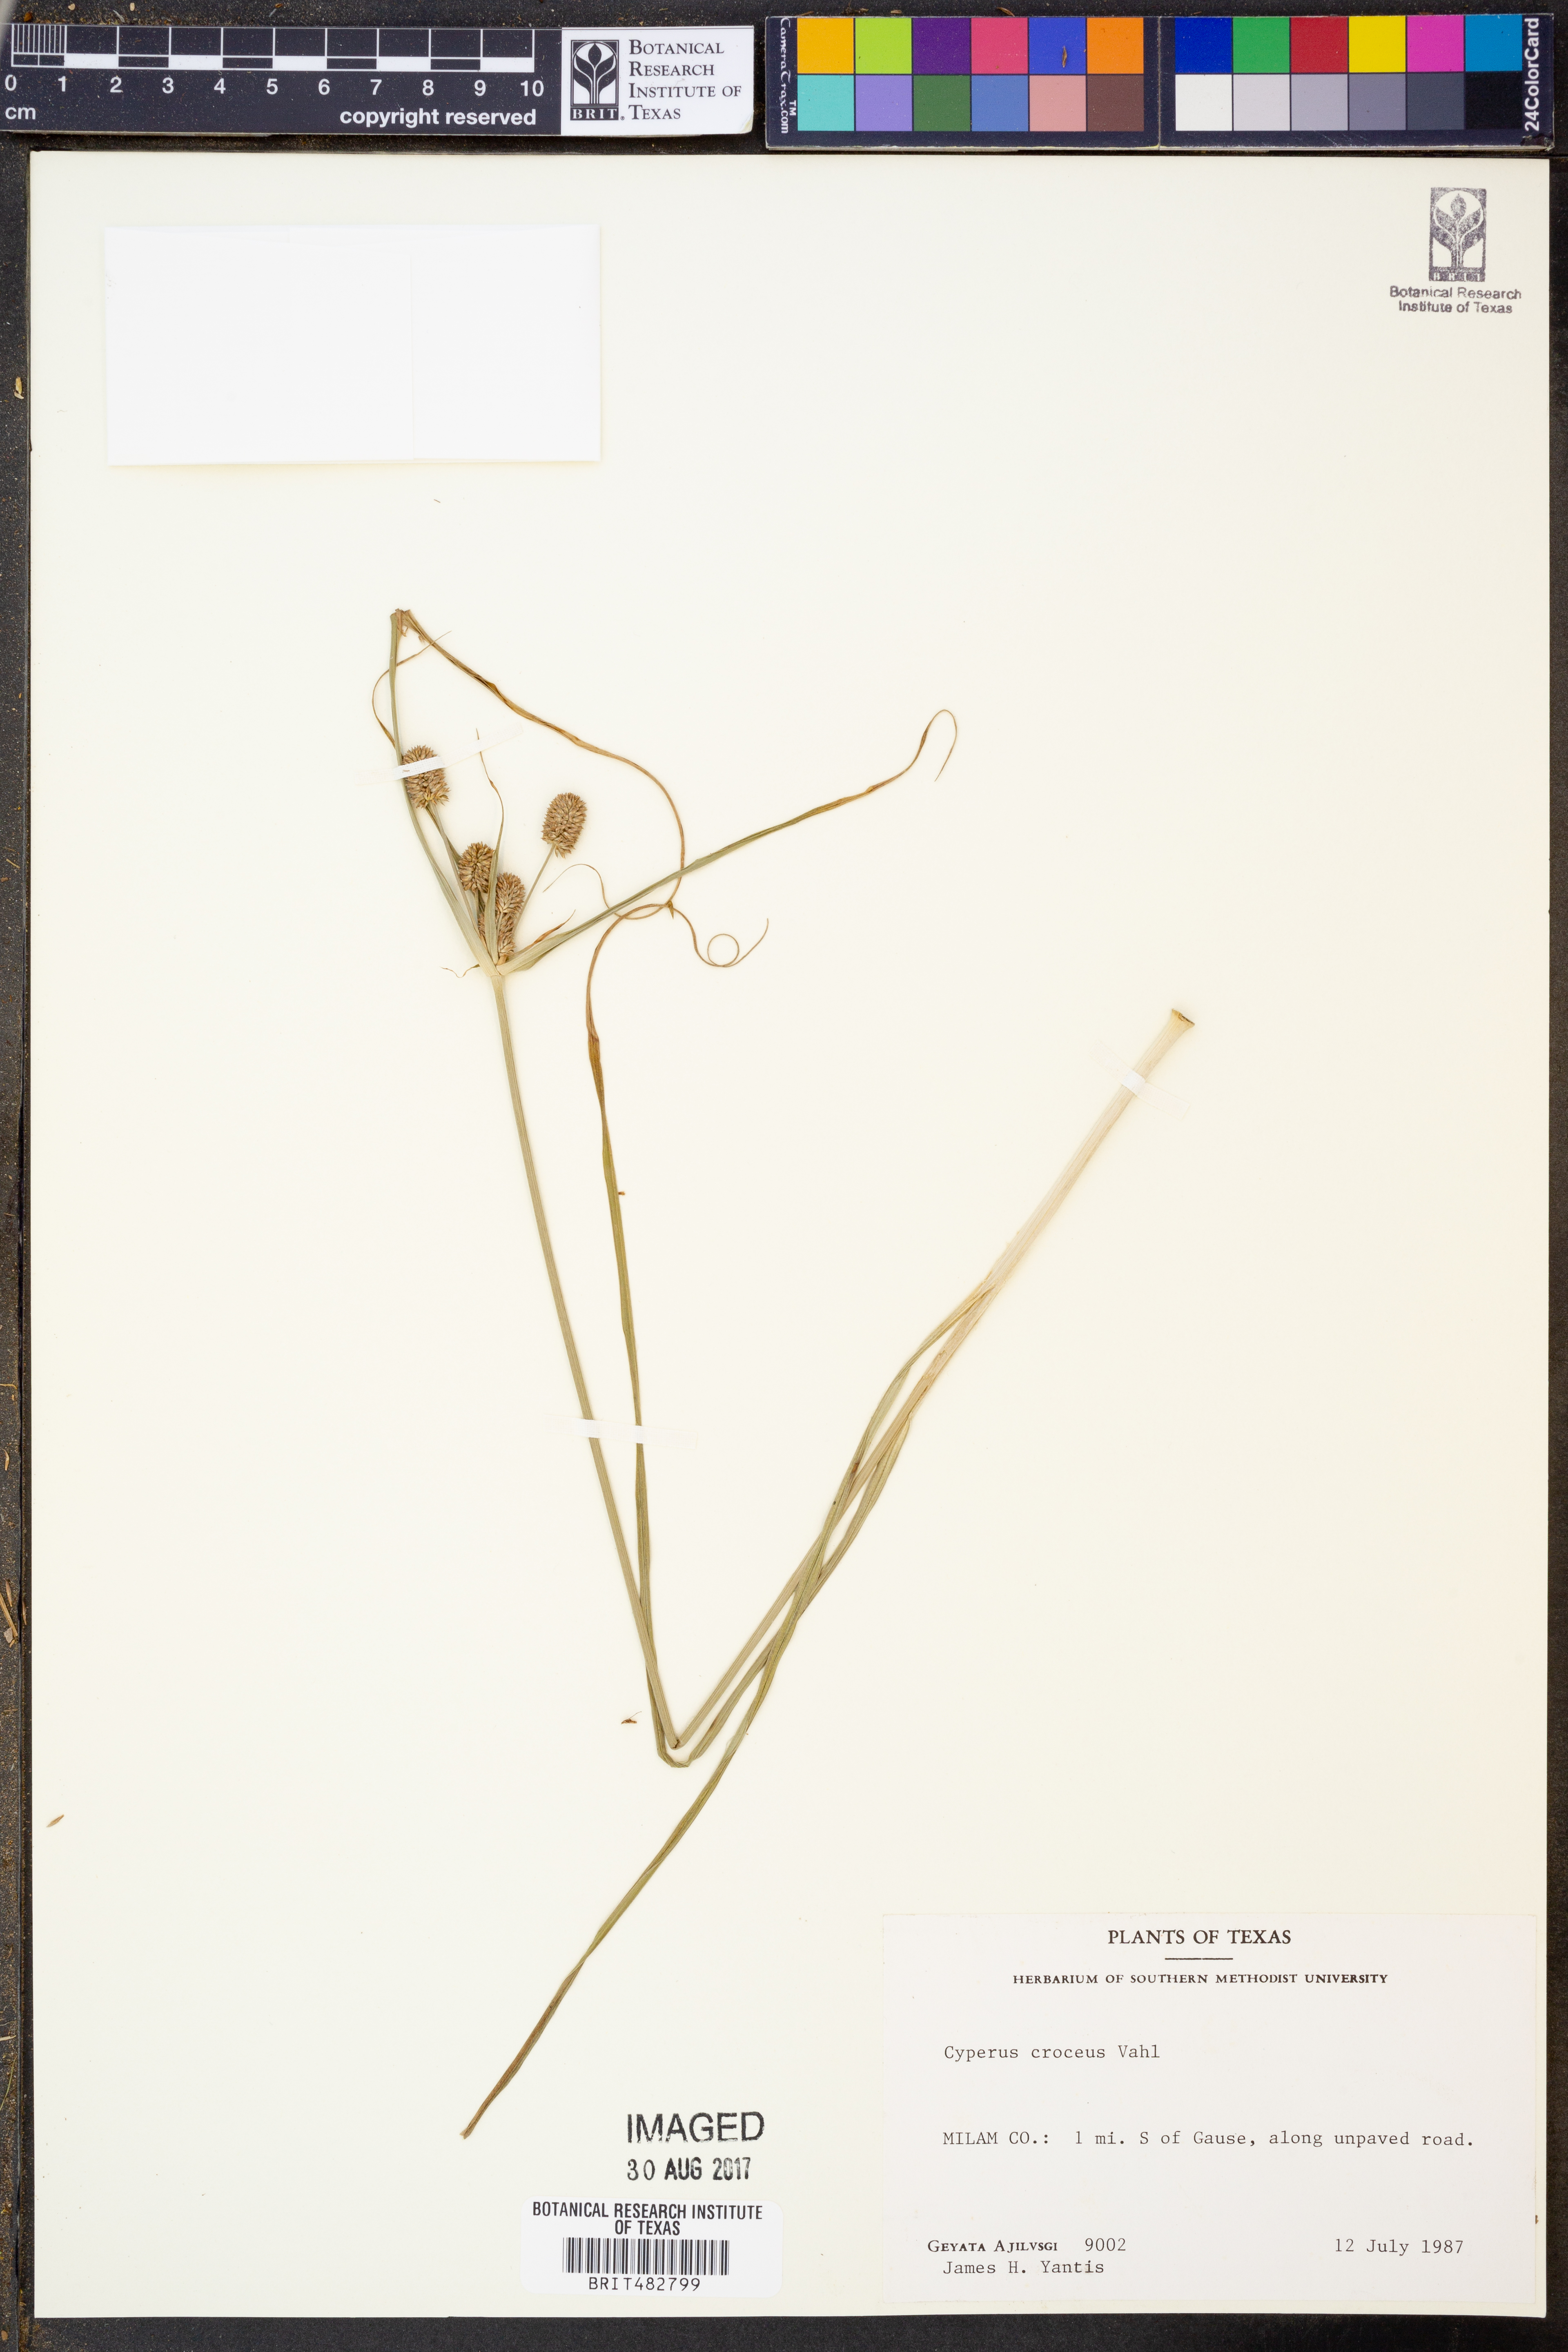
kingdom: Plantae
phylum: Tracheophyta
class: Liliopsida
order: Poales
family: Cyperaceae
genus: Cyperus
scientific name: Cyperus croceus
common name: Baldwin's flatsedge
